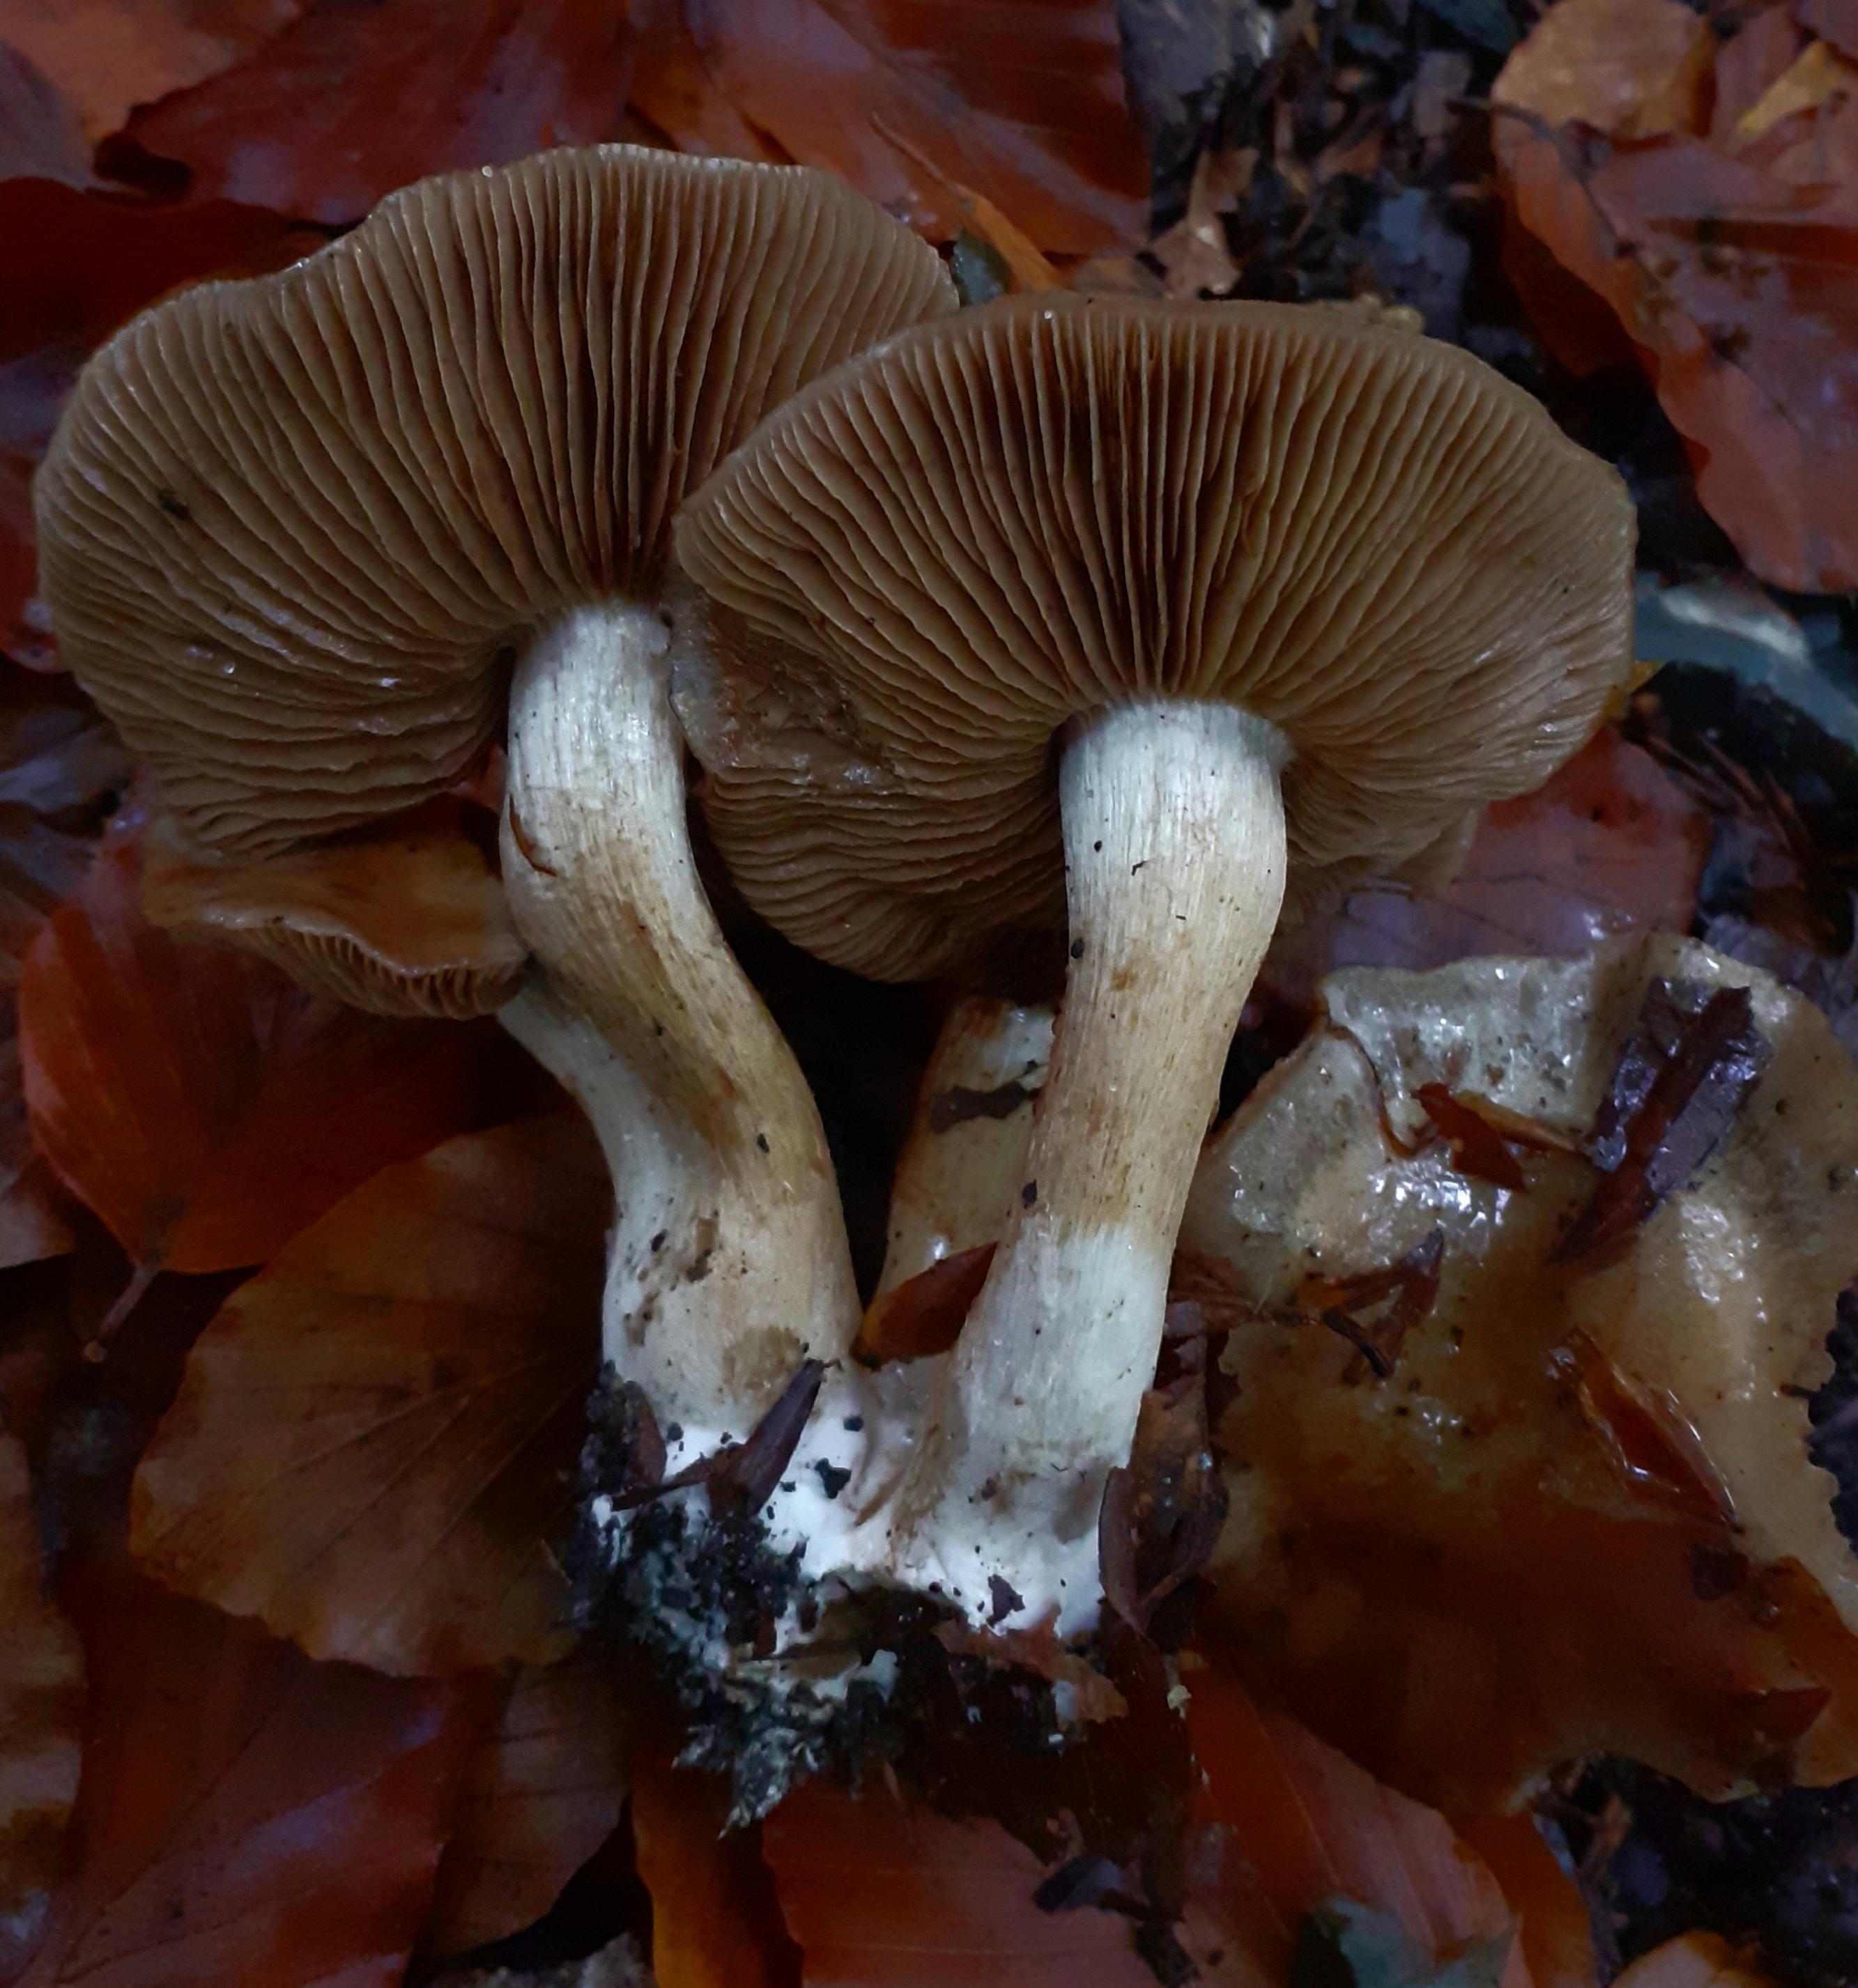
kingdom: Fungi
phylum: Basidiomycota
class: Agaricomycetes
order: Agaricales
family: Cortinariaceae
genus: Cortinarius
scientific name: Cortinarius
